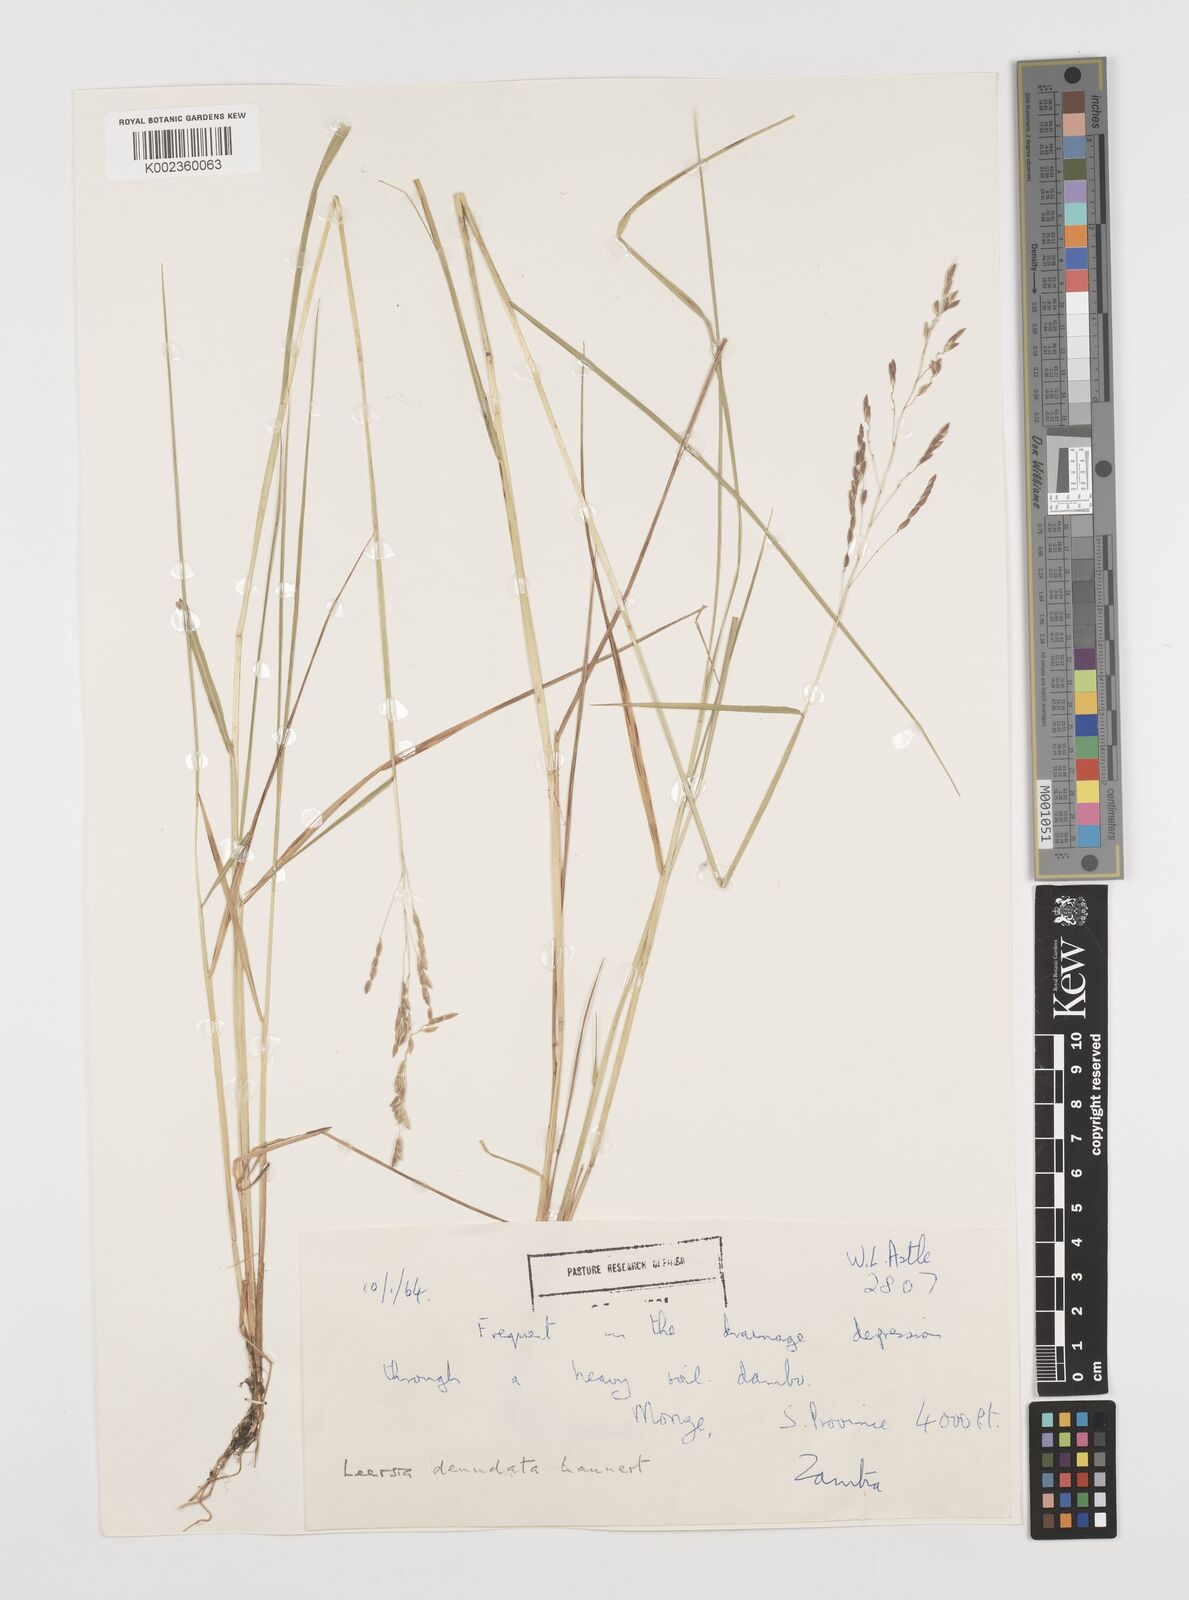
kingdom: Plantae
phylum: Tracheophyta
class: Liliopsida
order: Poales
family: Poaceae
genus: Leersia
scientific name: Leersia denudata
